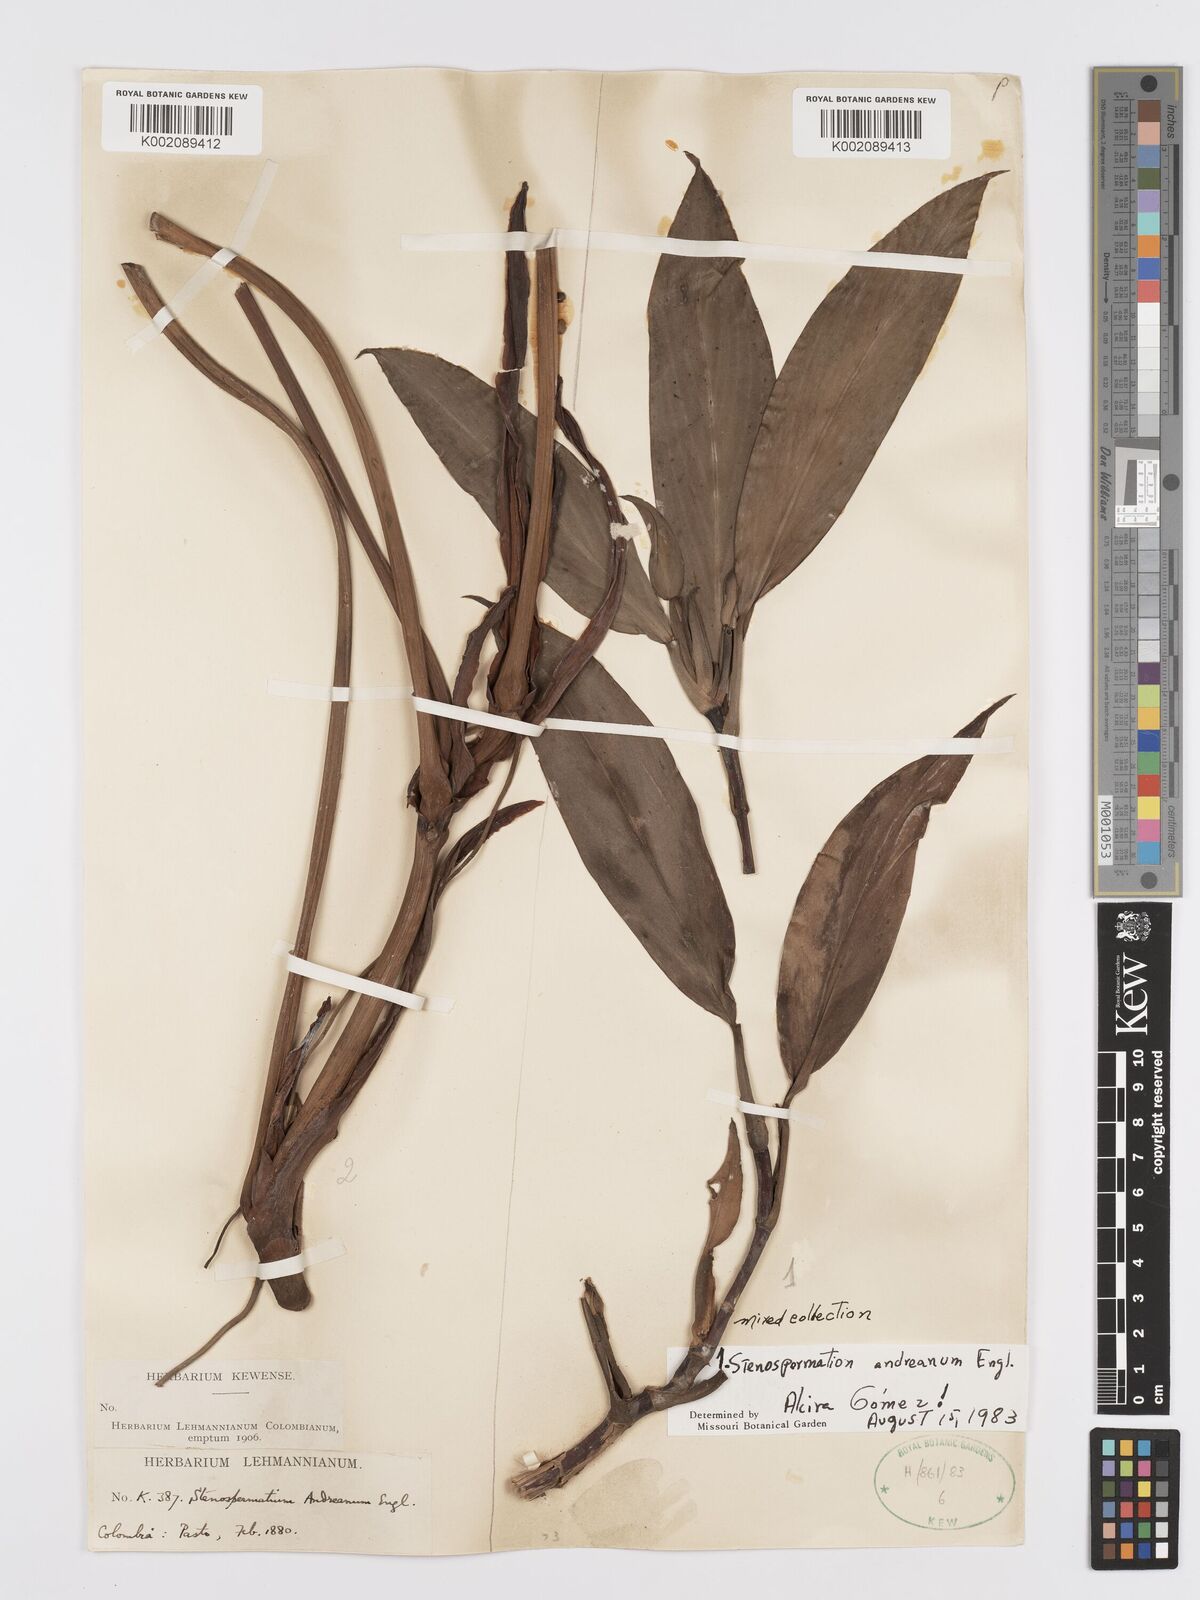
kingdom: Plantae
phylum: Tracheophyta
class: Liliopsida
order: Alismatales
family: Araceae
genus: Stenospermation
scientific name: Stenospermation andreanum
